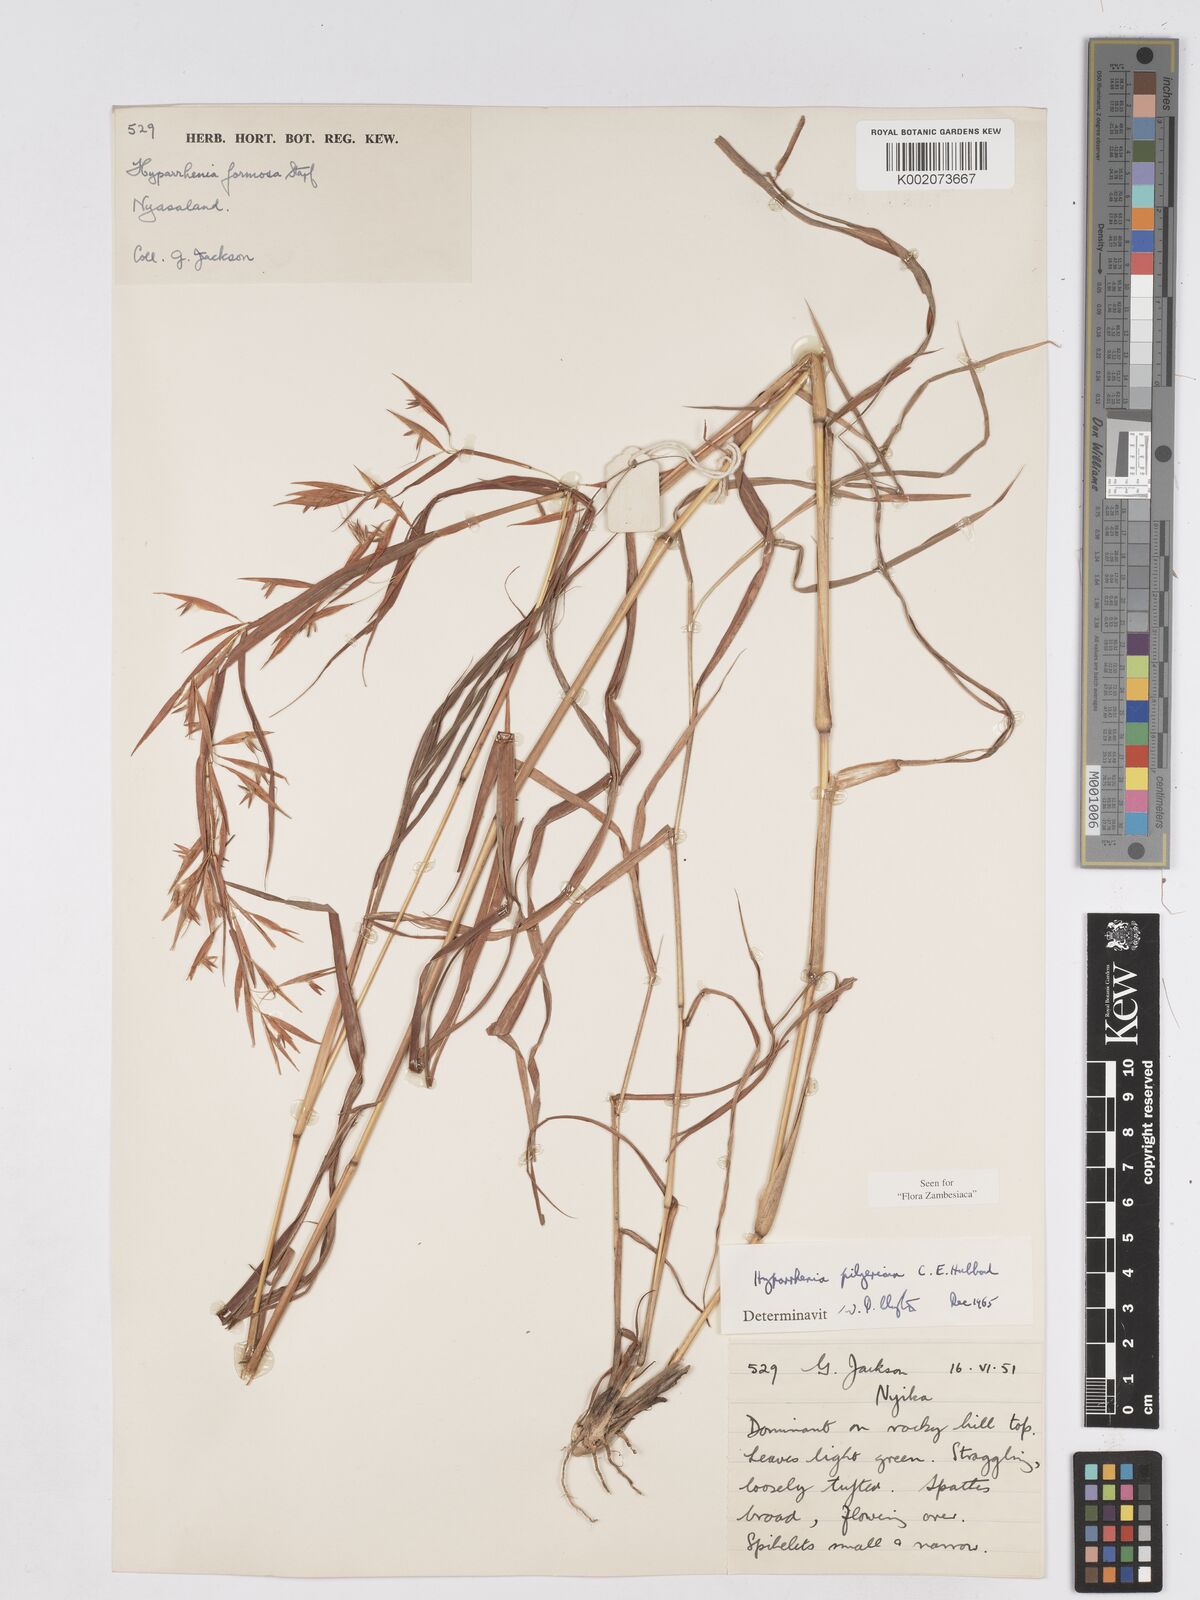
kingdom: Plantae
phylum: Tracheophyta
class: Liliopsida
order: Poales
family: Poaceae
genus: Hyparrhenia
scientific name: Hyparrhenia pilgeriana
